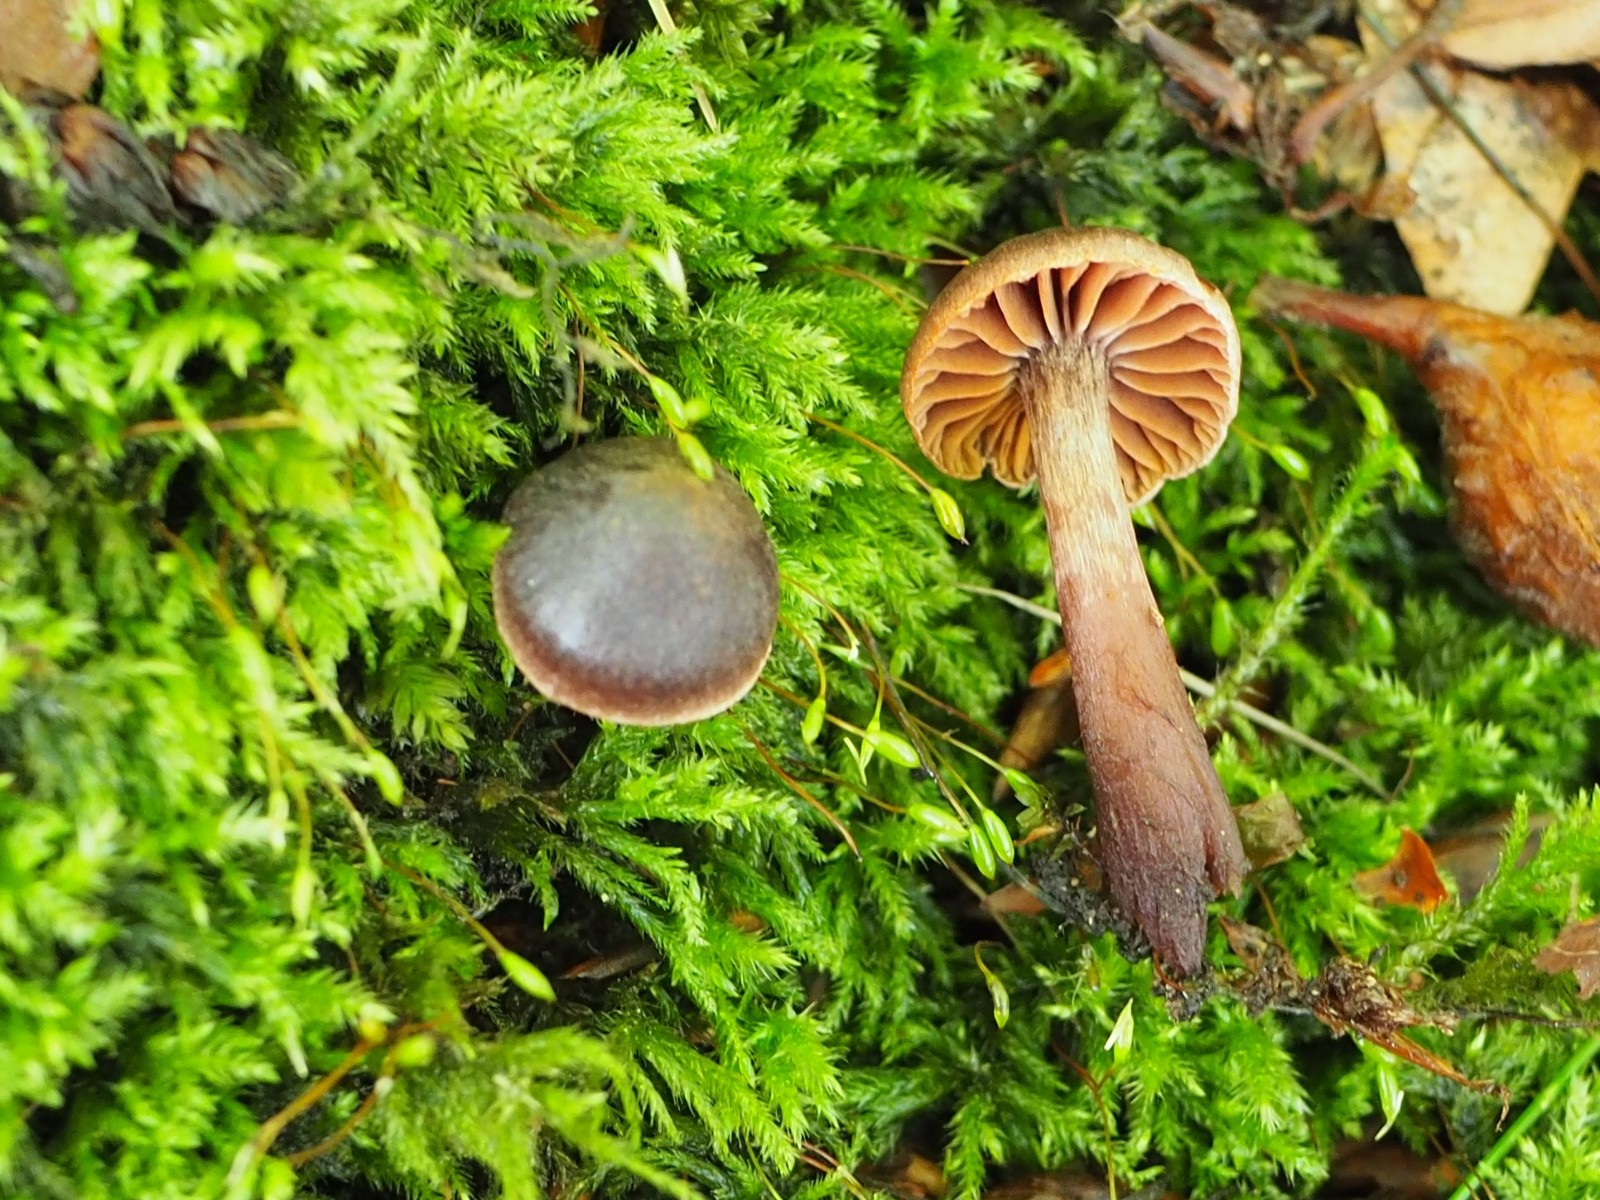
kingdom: Fungi
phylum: Basidiomycota
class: Agaricomycetes
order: Agaricales
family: Cortinariaceae
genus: Cortinarius
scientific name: Cortinarius danicus
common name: dansk slørhat
